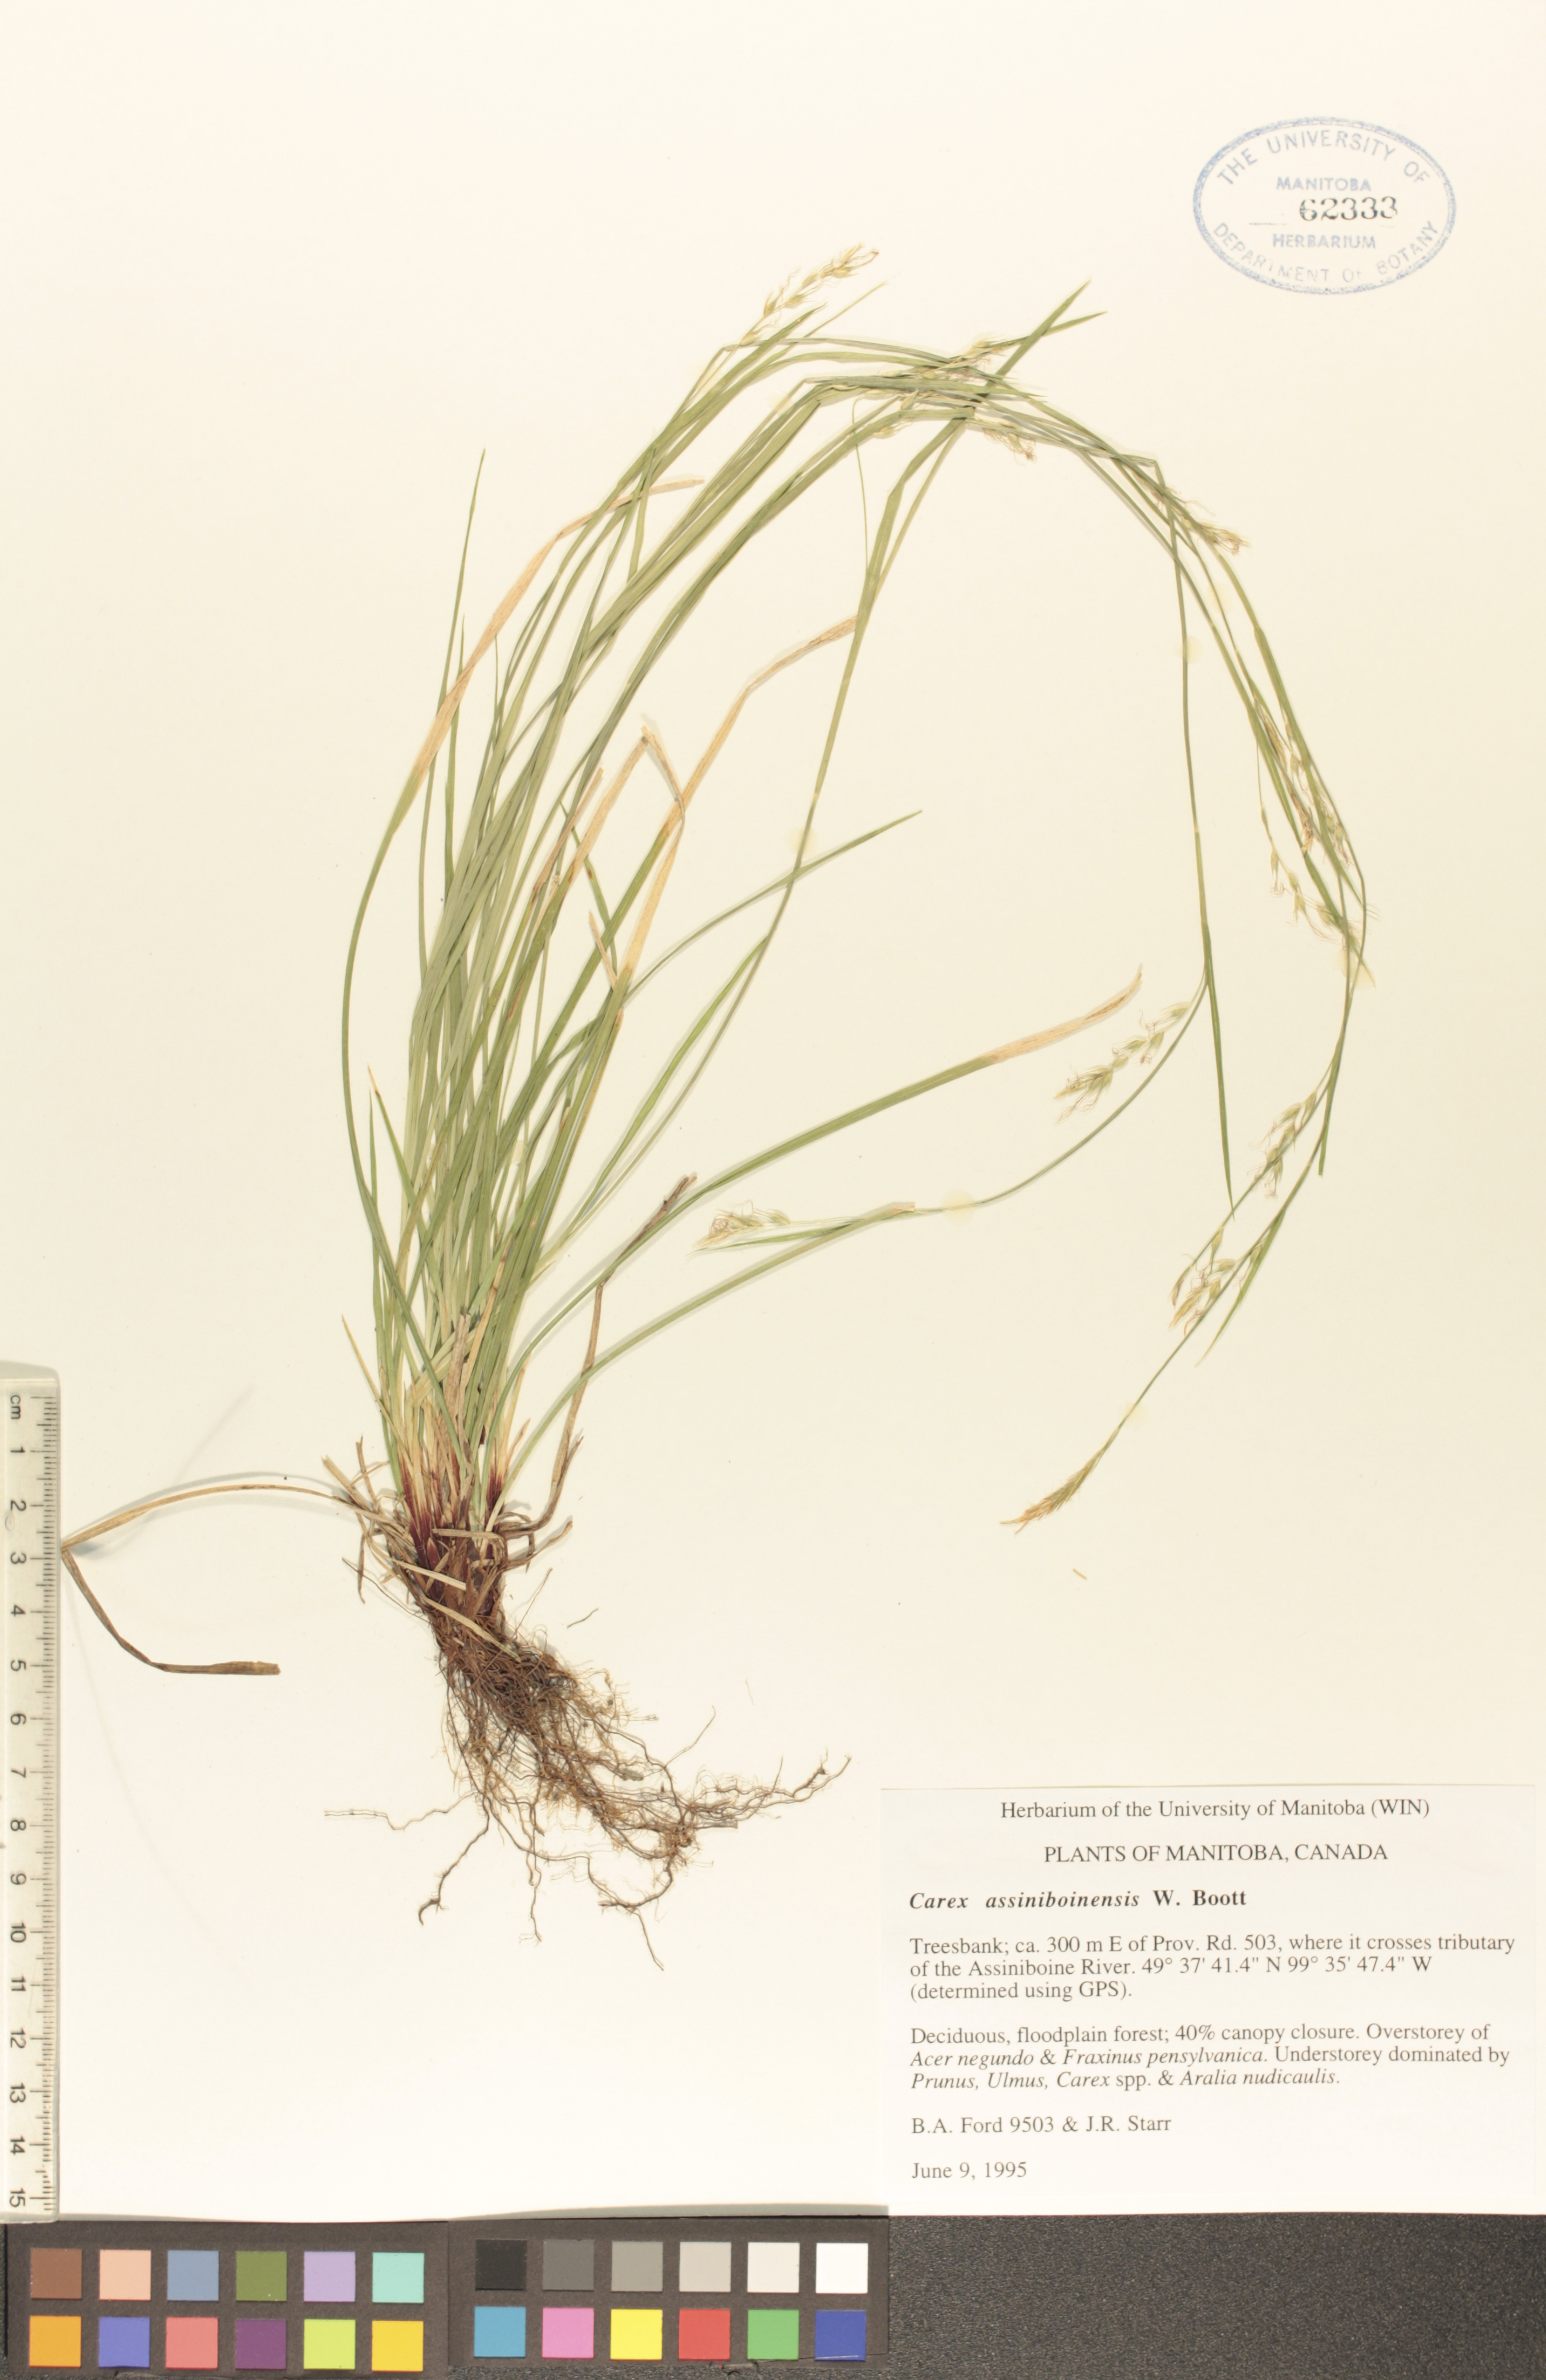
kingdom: Plantae
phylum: Tracheophyta
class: Liliopsida
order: Poales
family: Cyperaceae
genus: Carex
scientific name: Carex assiniboinensis
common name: Assiniboia sedge
